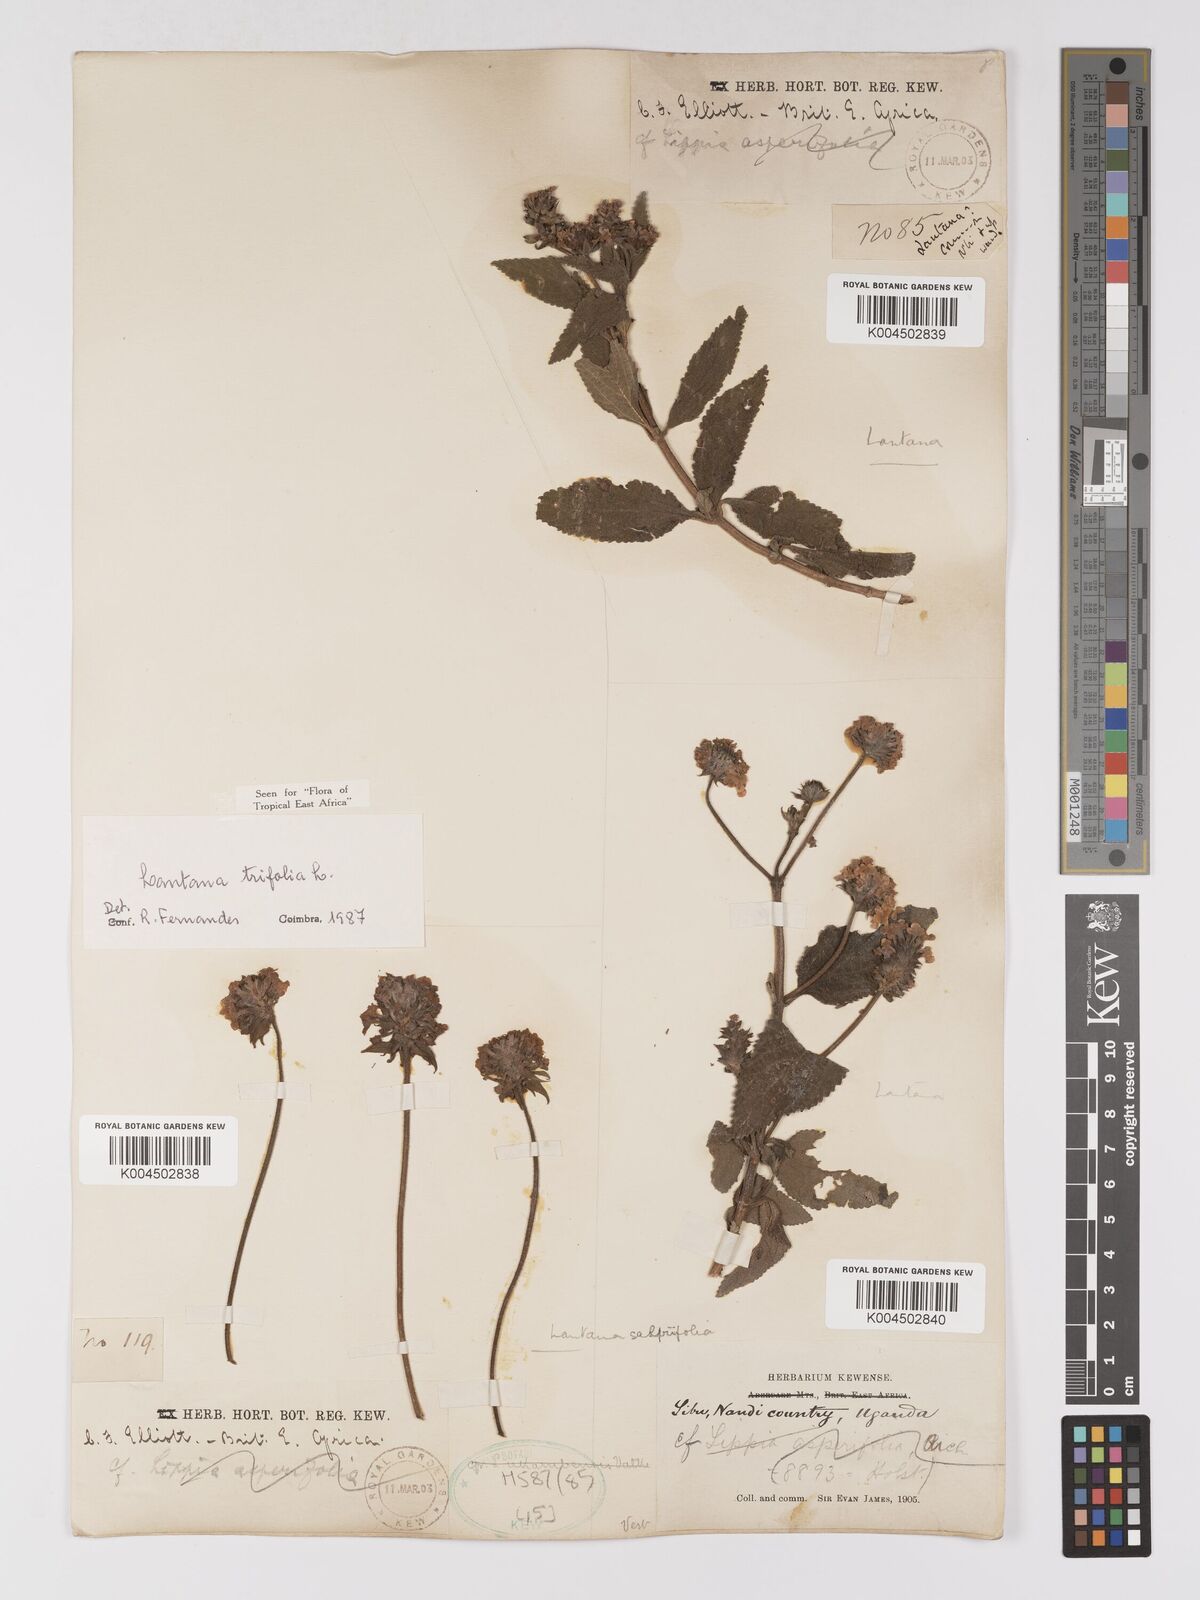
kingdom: Plantae
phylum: Tracheophyta
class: Magnoliopsida
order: Lamiales
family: Verbenaceae
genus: Lantana
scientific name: Lantana trifolia
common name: Sweet-sage
